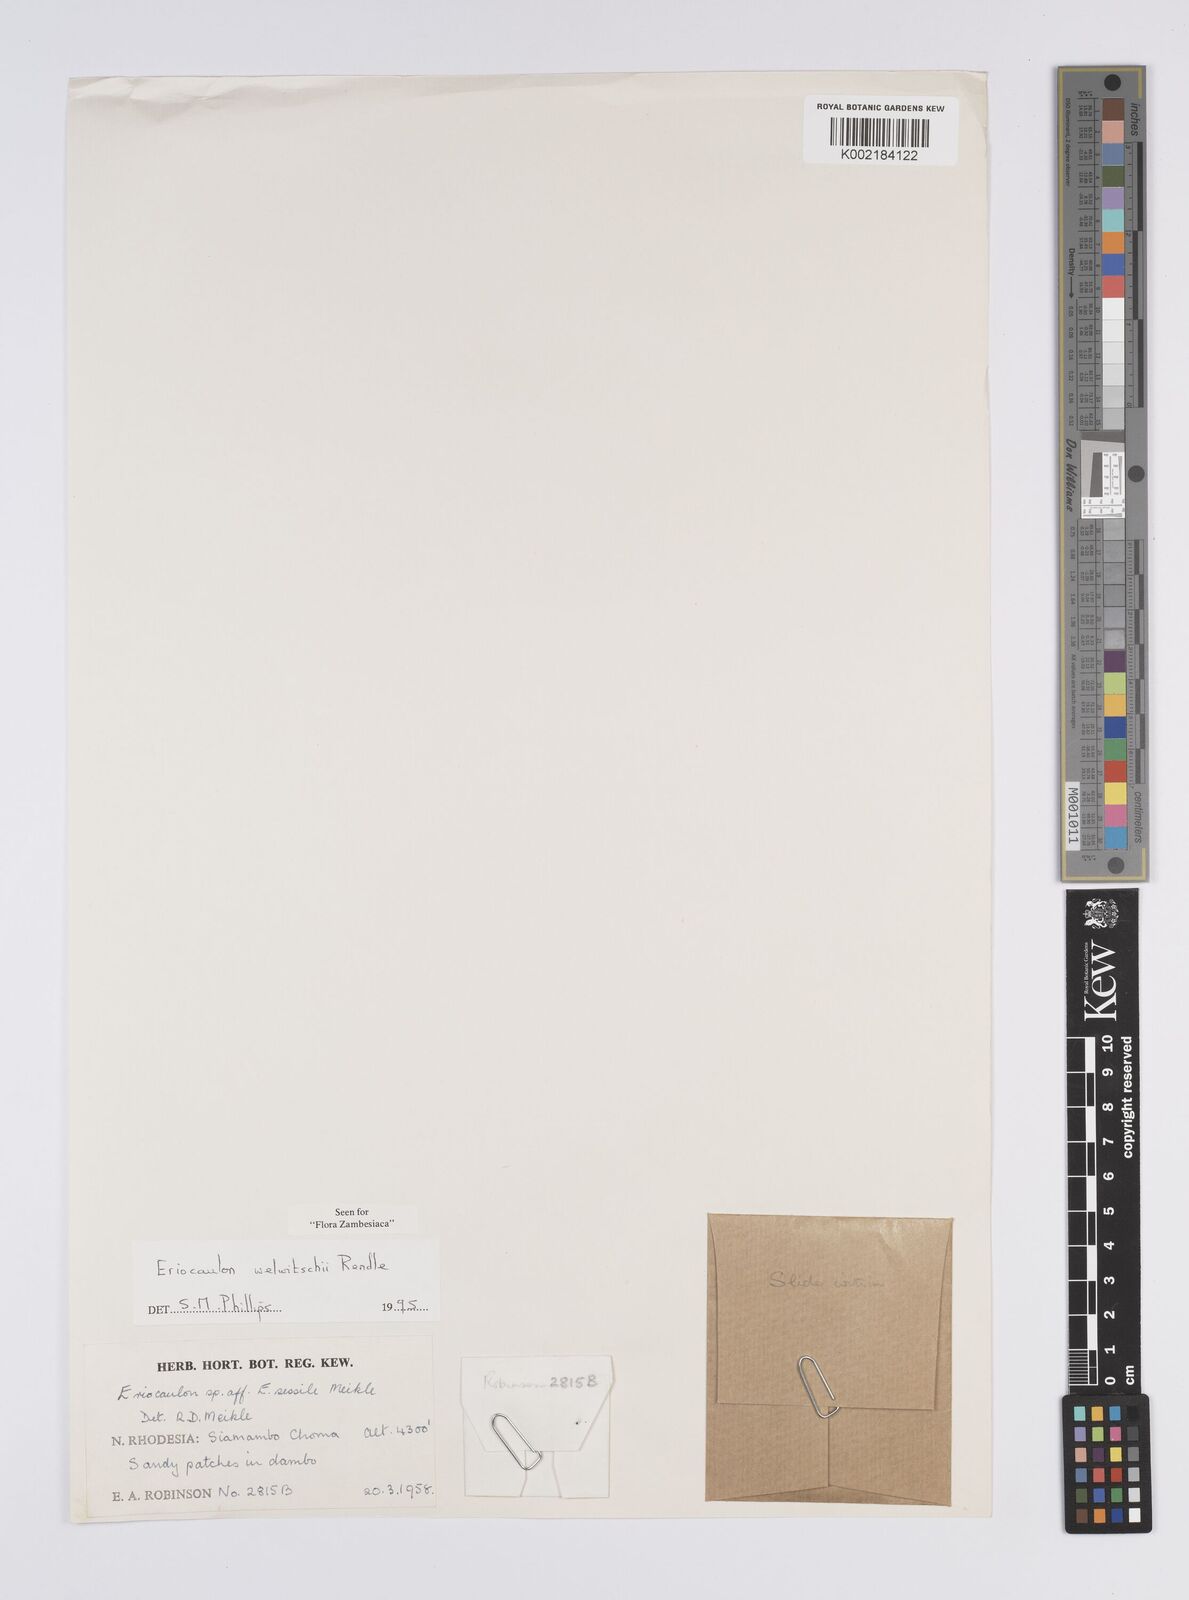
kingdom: Plantae
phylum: Tracheophyta
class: Liliopsida
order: Poales
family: Eriocaulaceae
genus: Eriocaulon
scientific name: Eriocaulon welwitschii
